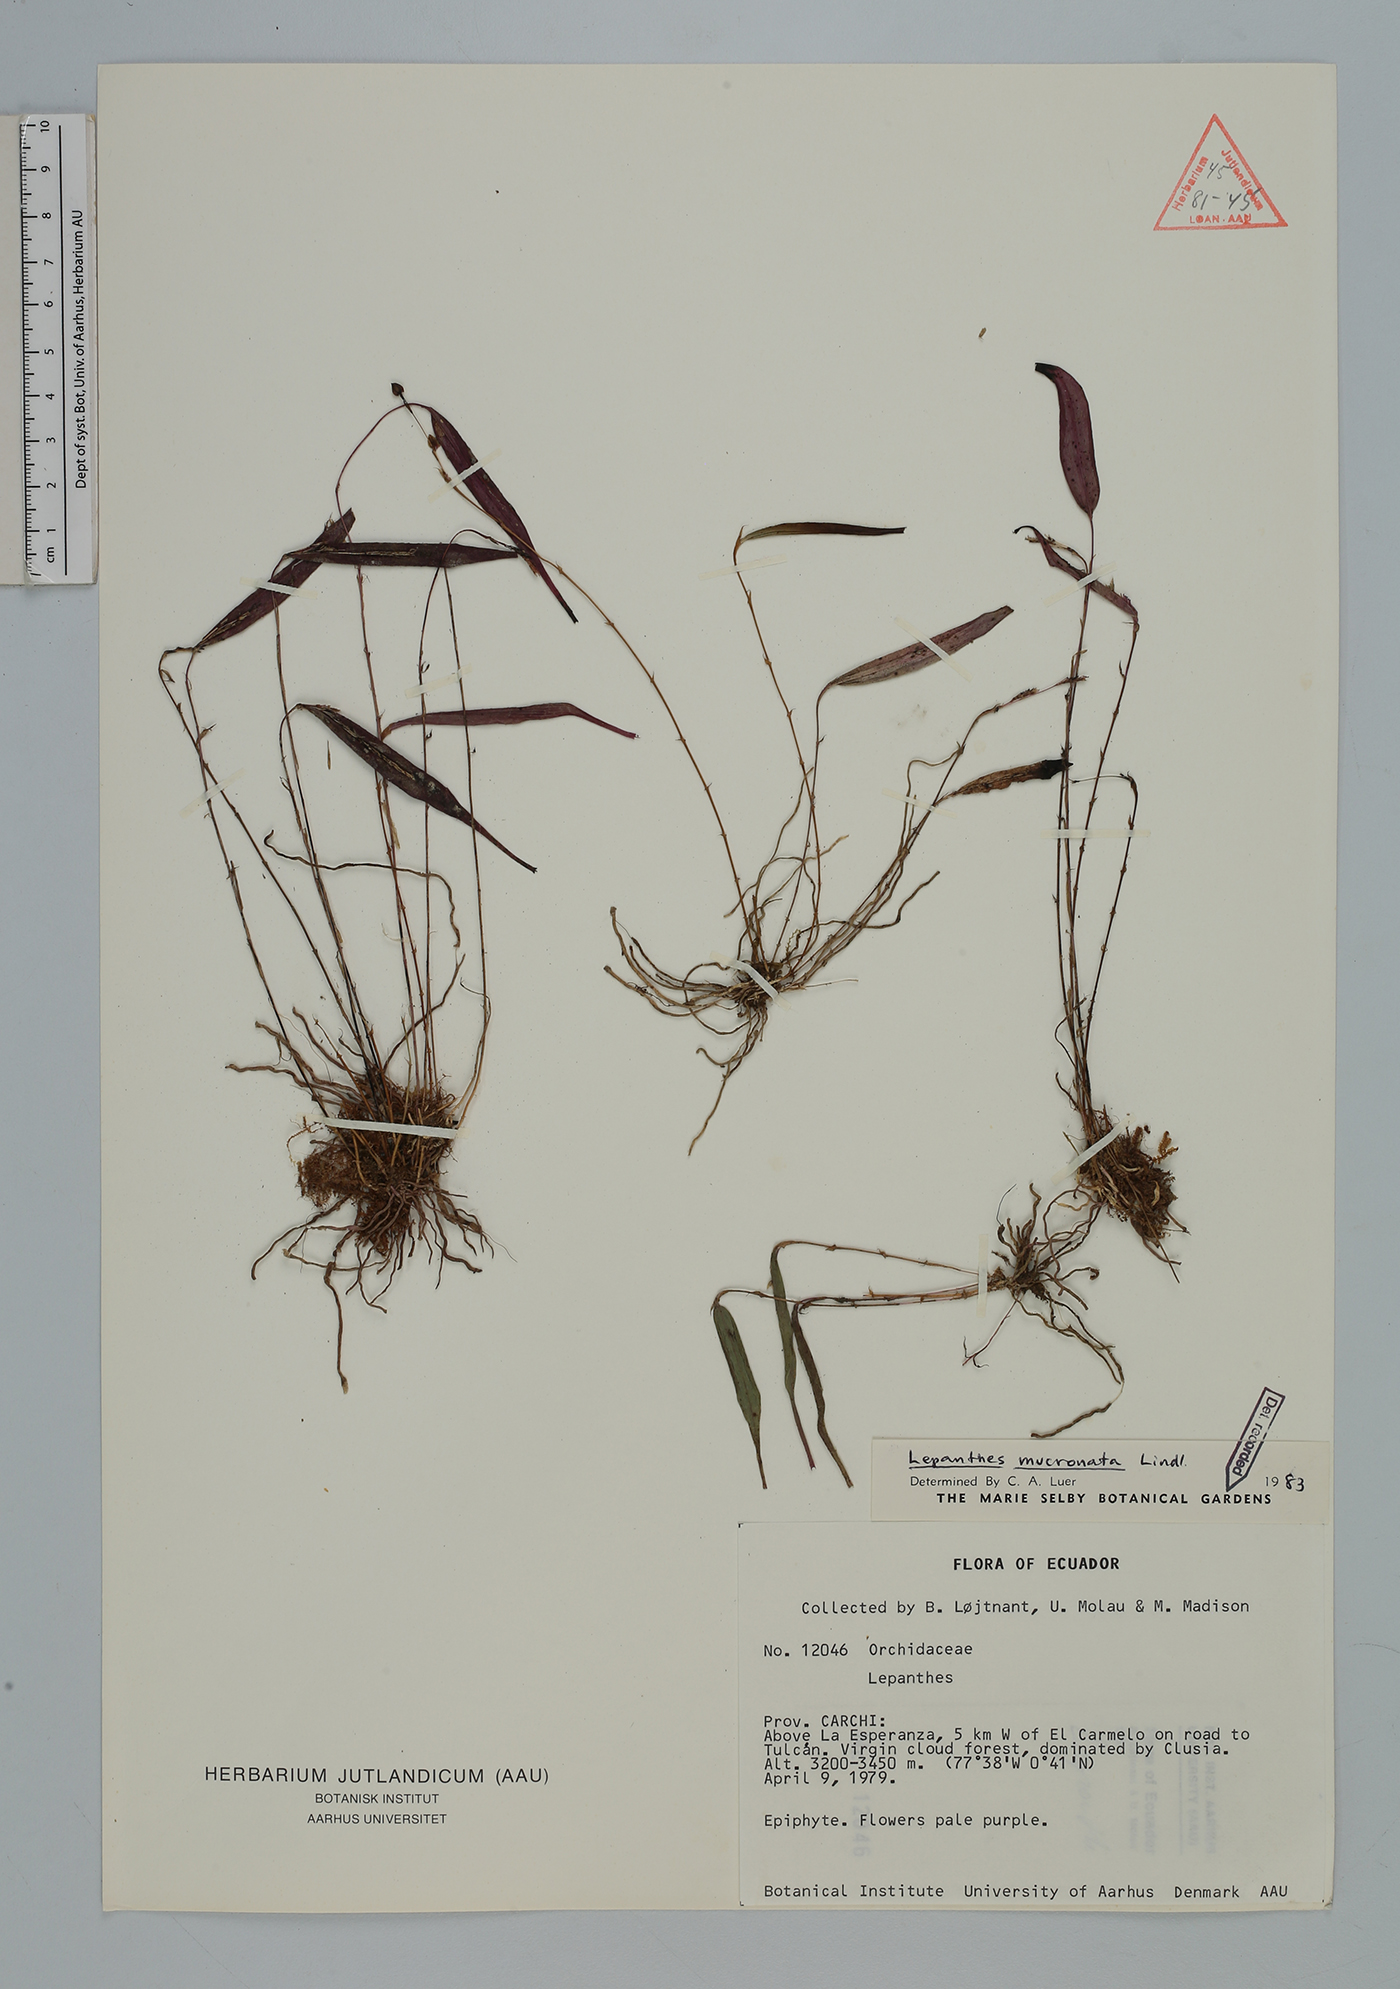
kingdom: Plantae
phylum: Tracheophyta
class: Liliopsida
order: Asparagales
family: Orchidaceae
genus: Lepanthes
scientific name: Lepanthes mucronata
